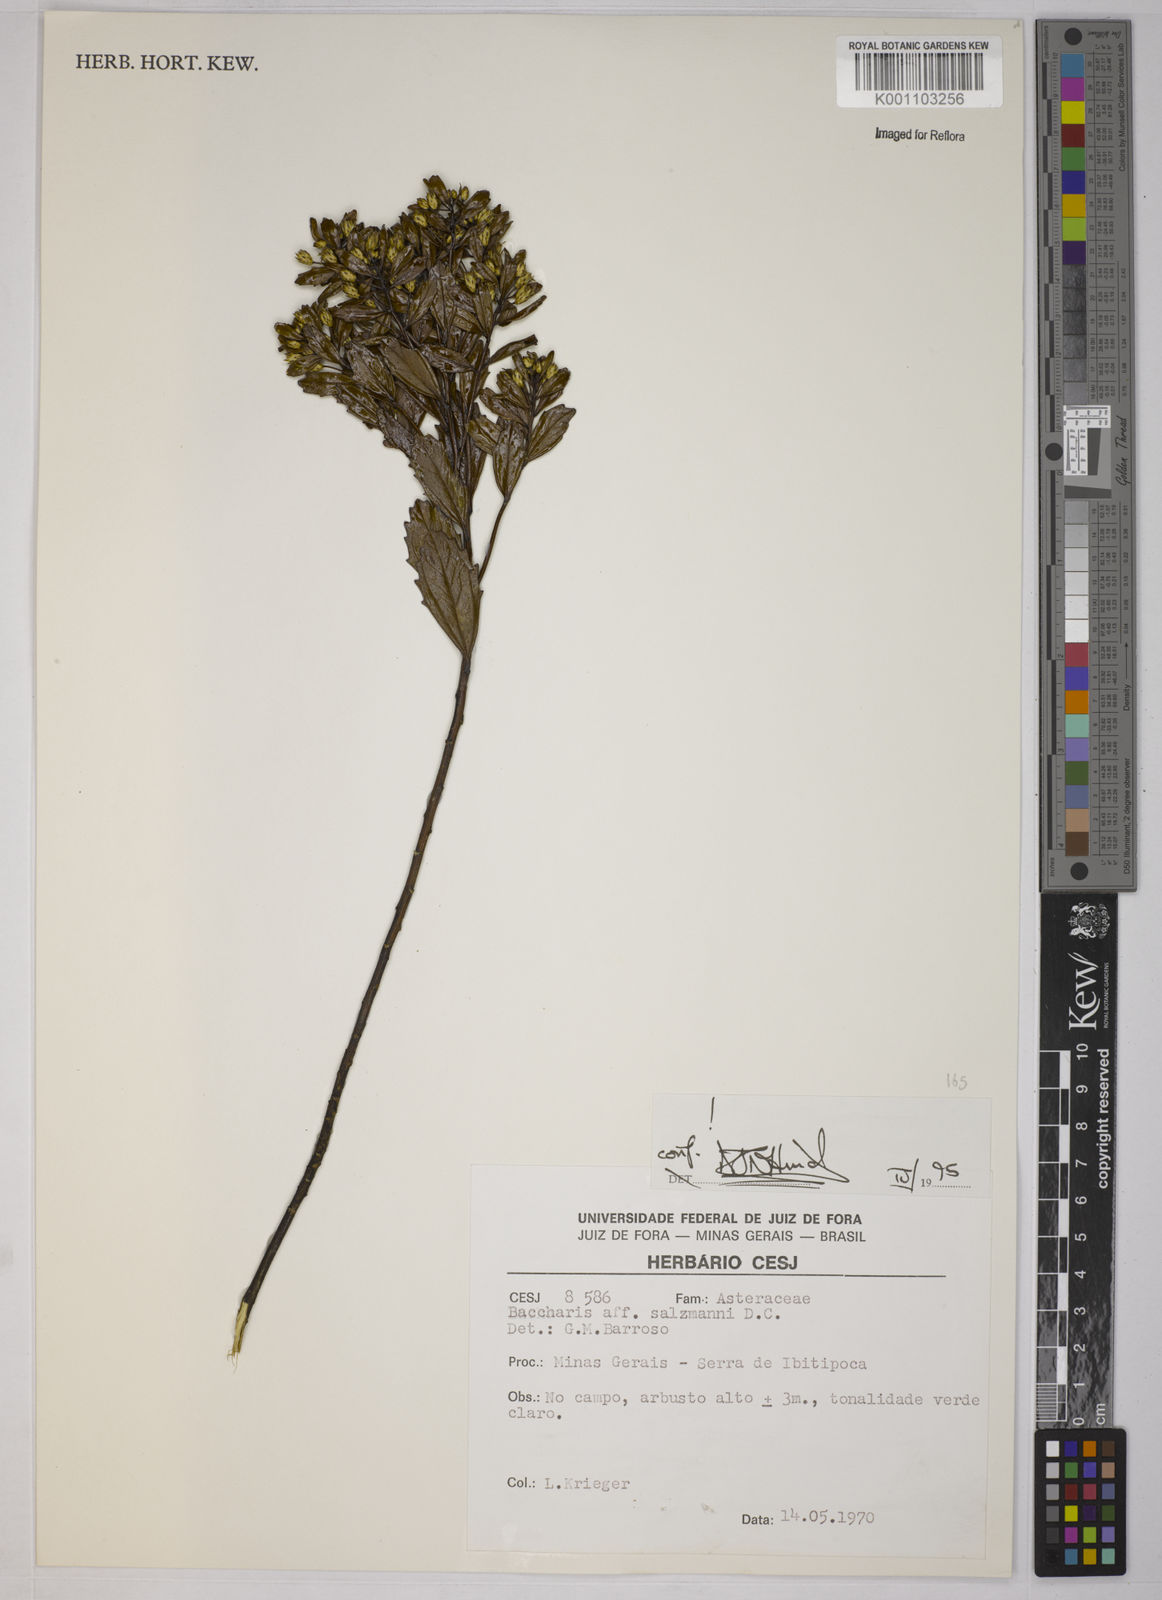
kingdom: Plantae
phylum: Tracheophyta
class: Magnoliopsida
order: Asterales
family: Asteraceae
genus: Baccharis
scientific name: Baccharis retusa
